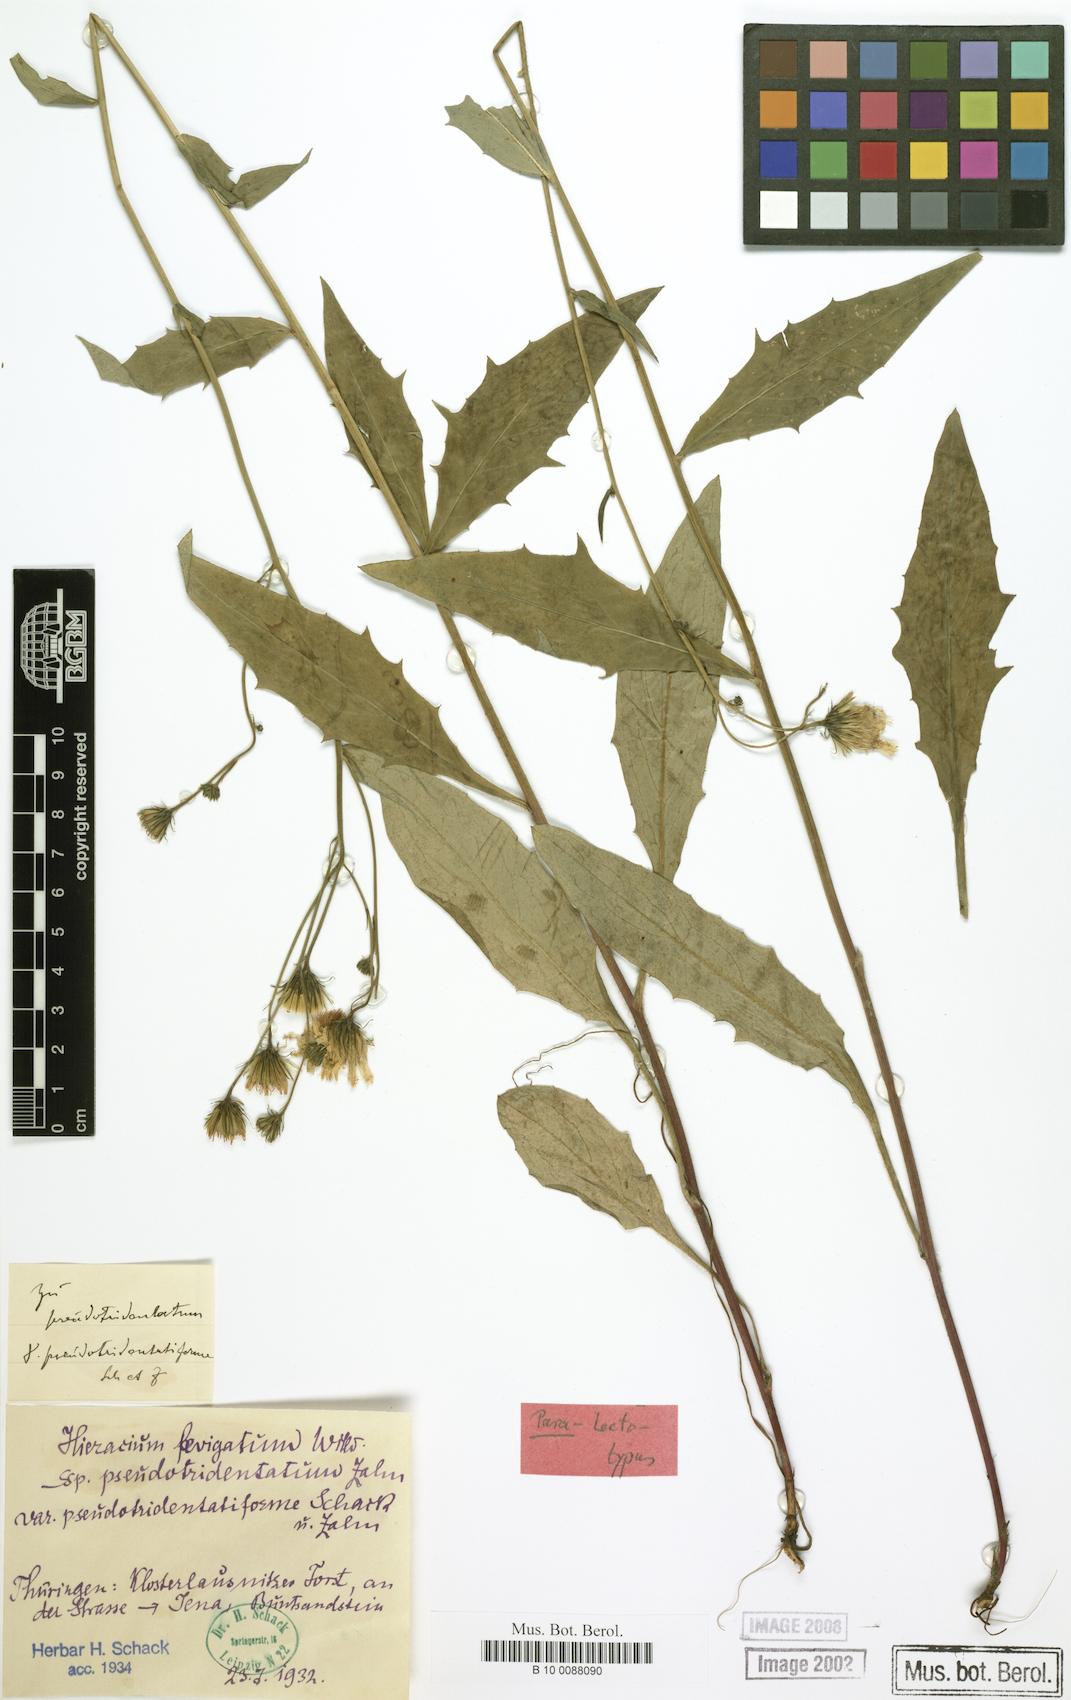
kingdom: Plantae
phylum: Tracheophyta
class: Magnoliopsida
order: Asterales
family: Asteraceae
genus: Hieracium
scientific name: Hieracium laevigatum
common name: Smooth hawkweed
